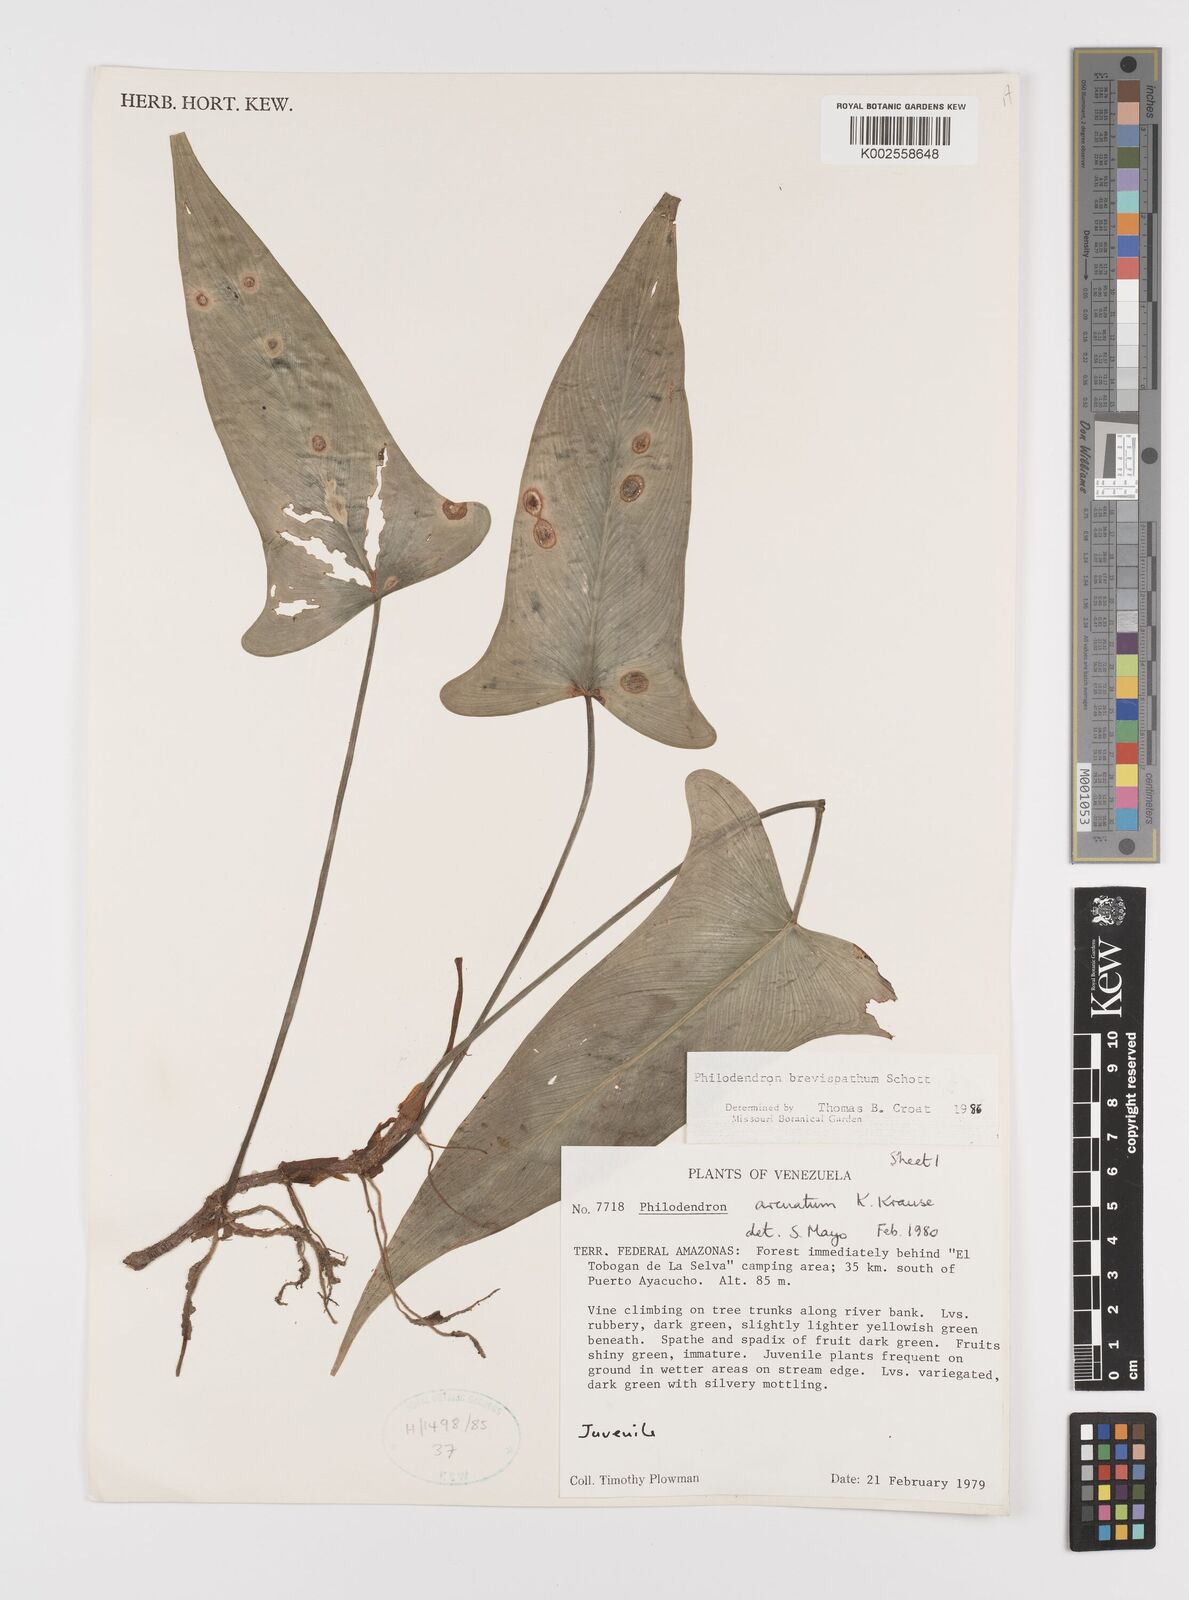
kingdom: Plantae
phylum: Tracheophyta
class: Liliopsida
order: Alismatales
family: Araceae
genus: Philodendron
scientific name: Philodendron brevispathum
